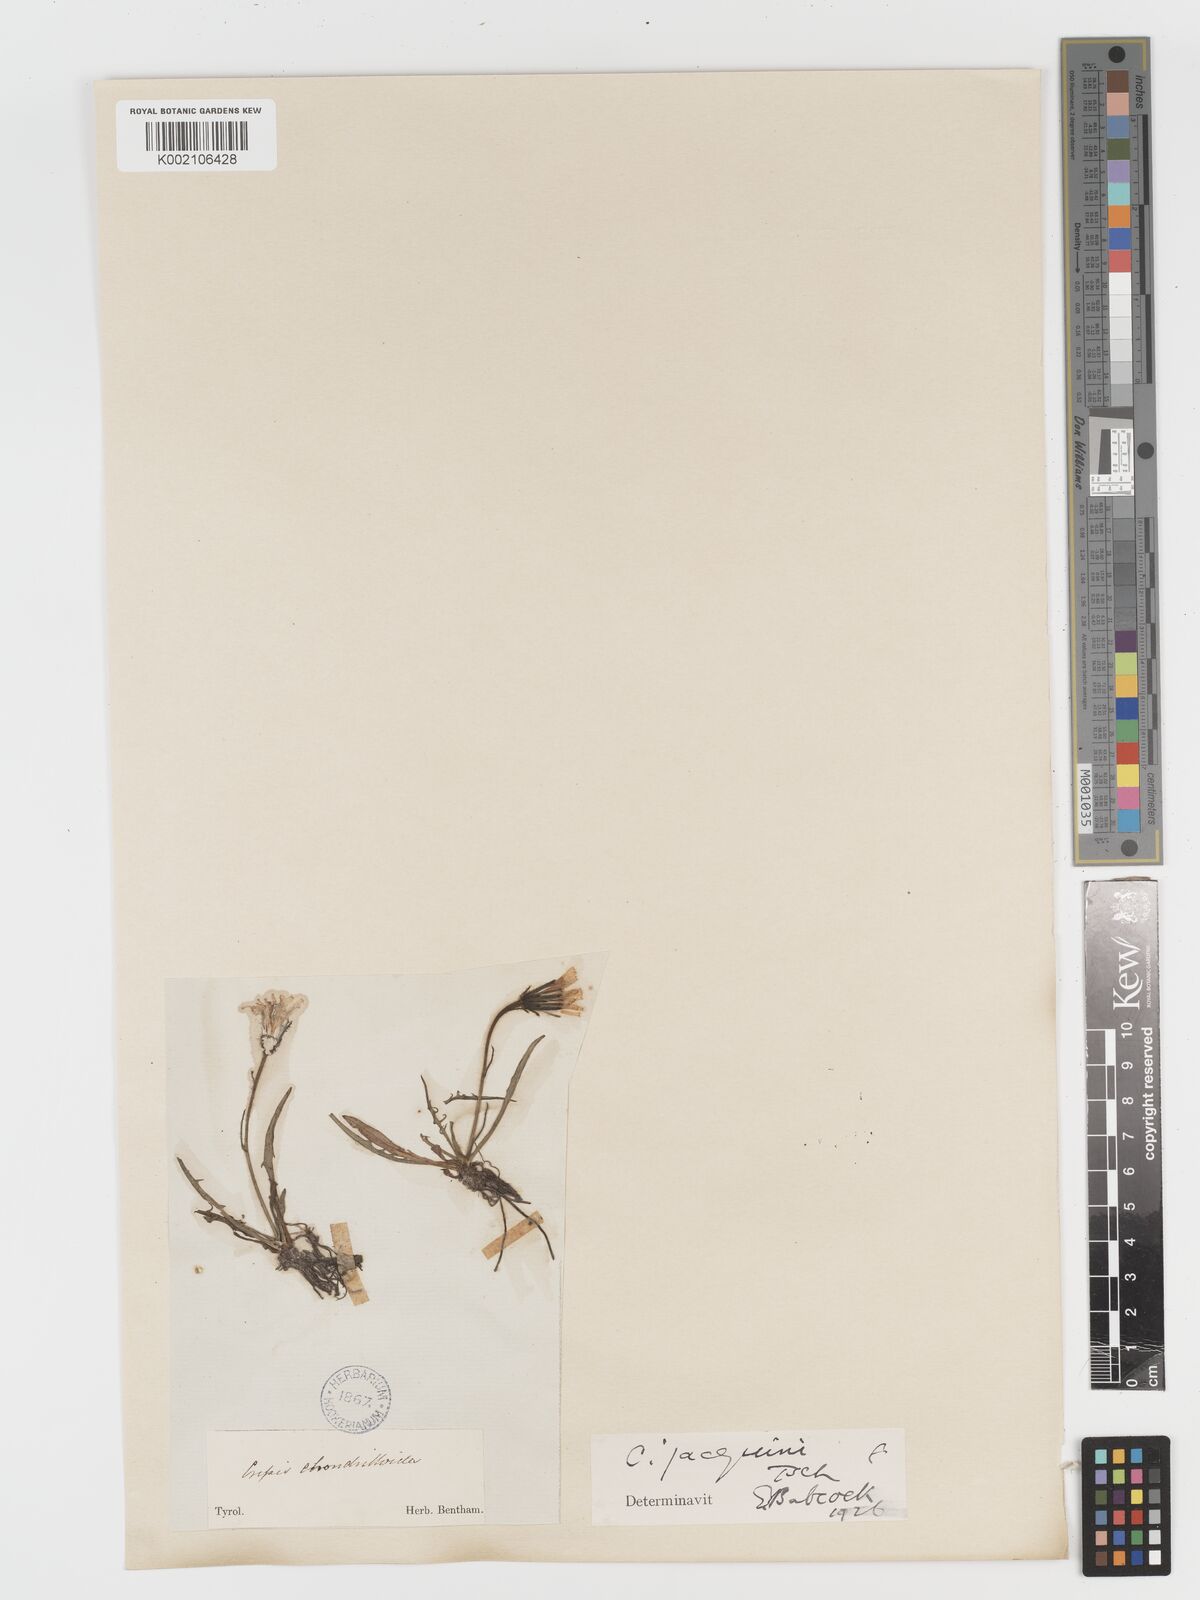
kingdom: Plantae
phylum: Tracheophyta
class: Magnoliopsida
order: Asterales
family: Asteraceae
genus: Crepis
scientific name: Crepis jacquinii
